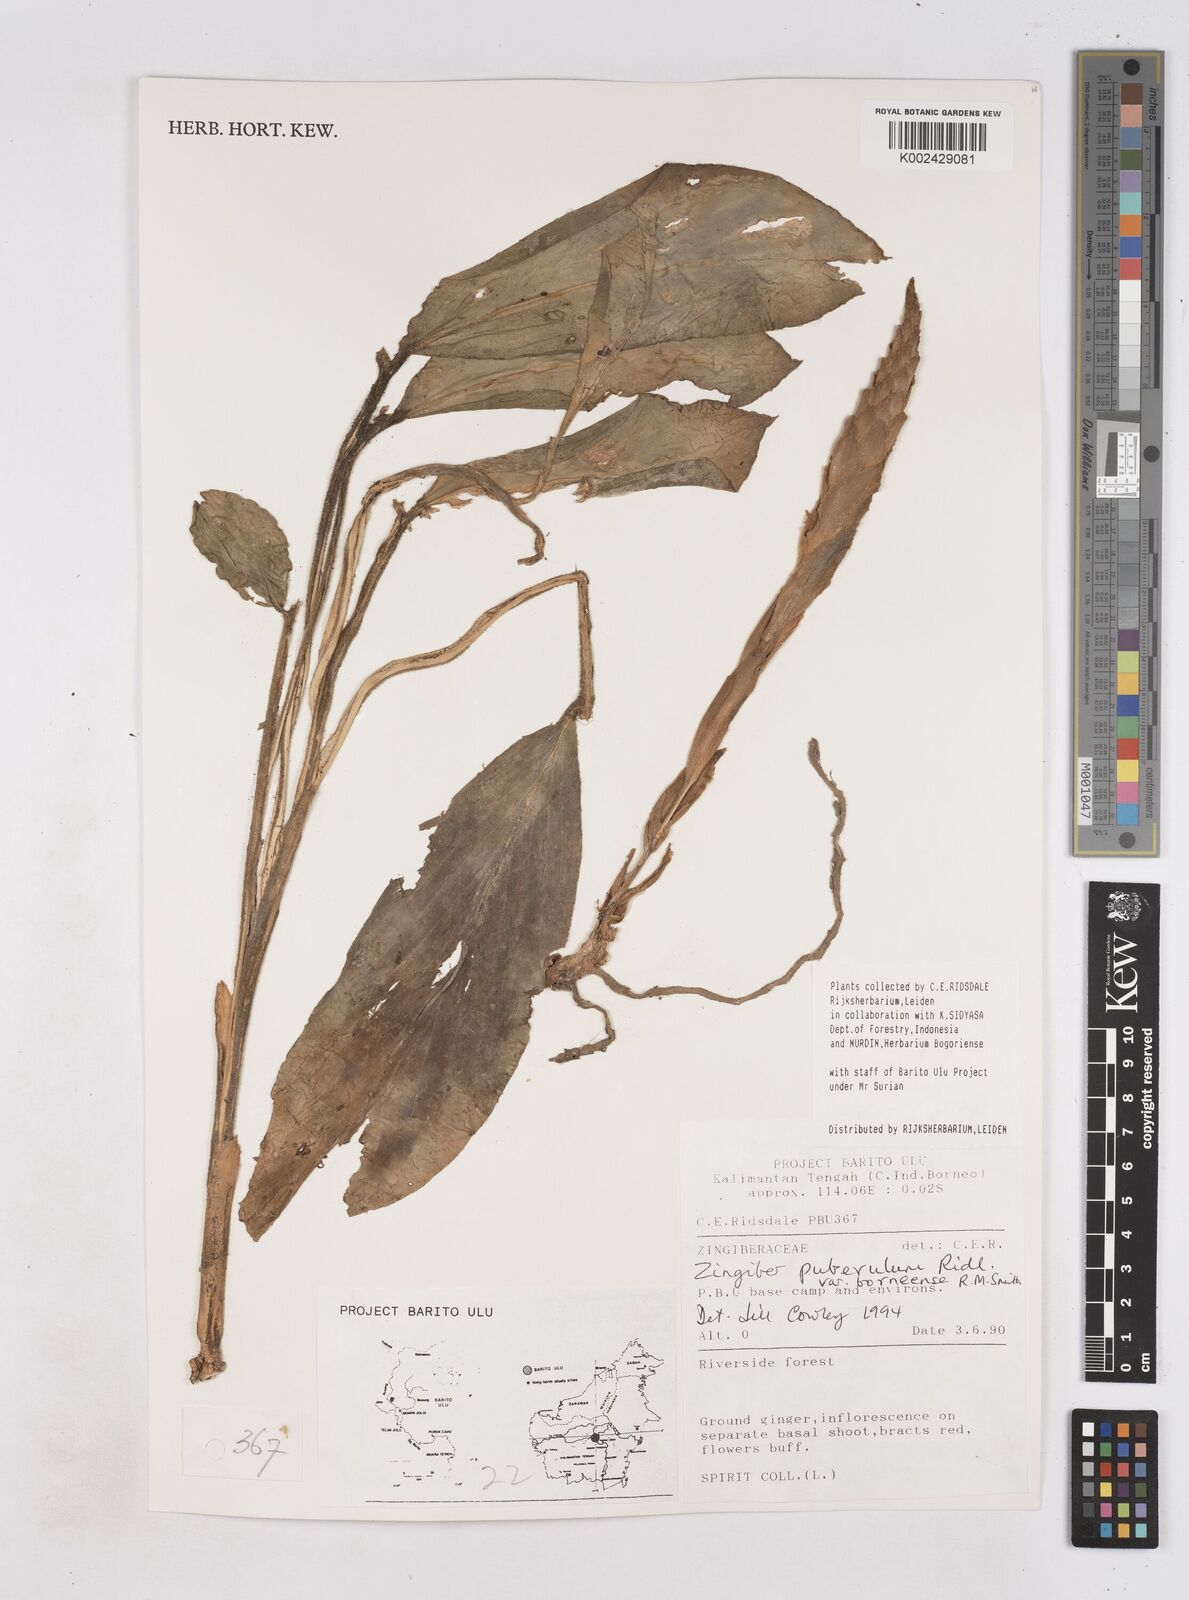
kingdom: Plantae
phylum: Tracheophyta
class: Liliopsida
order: Zingiberales
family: Zingiberaceae
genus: Zingiber
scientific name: Zingiber puberulum
